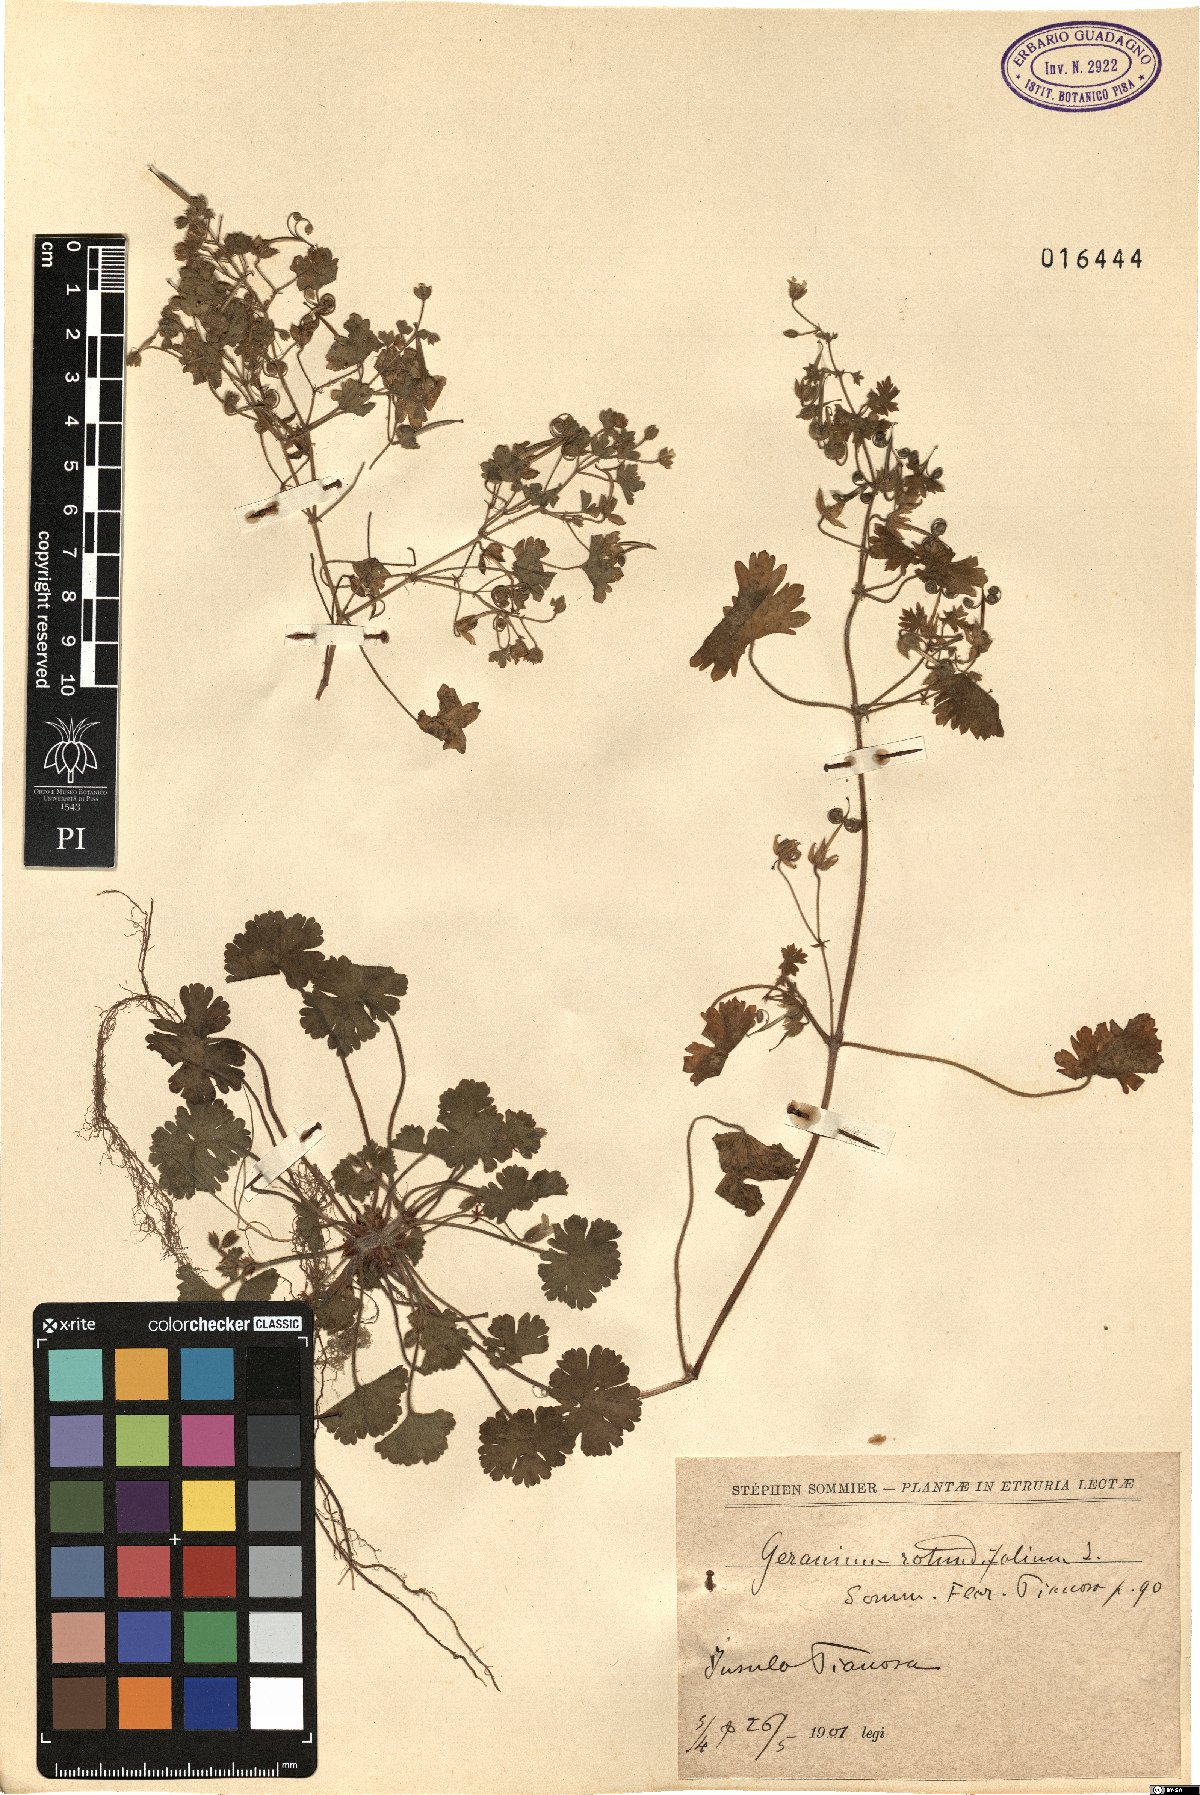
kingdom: Plantae
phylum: Tracheophyta
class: Magnoliopsida
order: Geraniales
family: Geraniaceae
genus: Geranium
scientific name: Geranium rotundifolium
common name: Round-leaved crane's-bill
